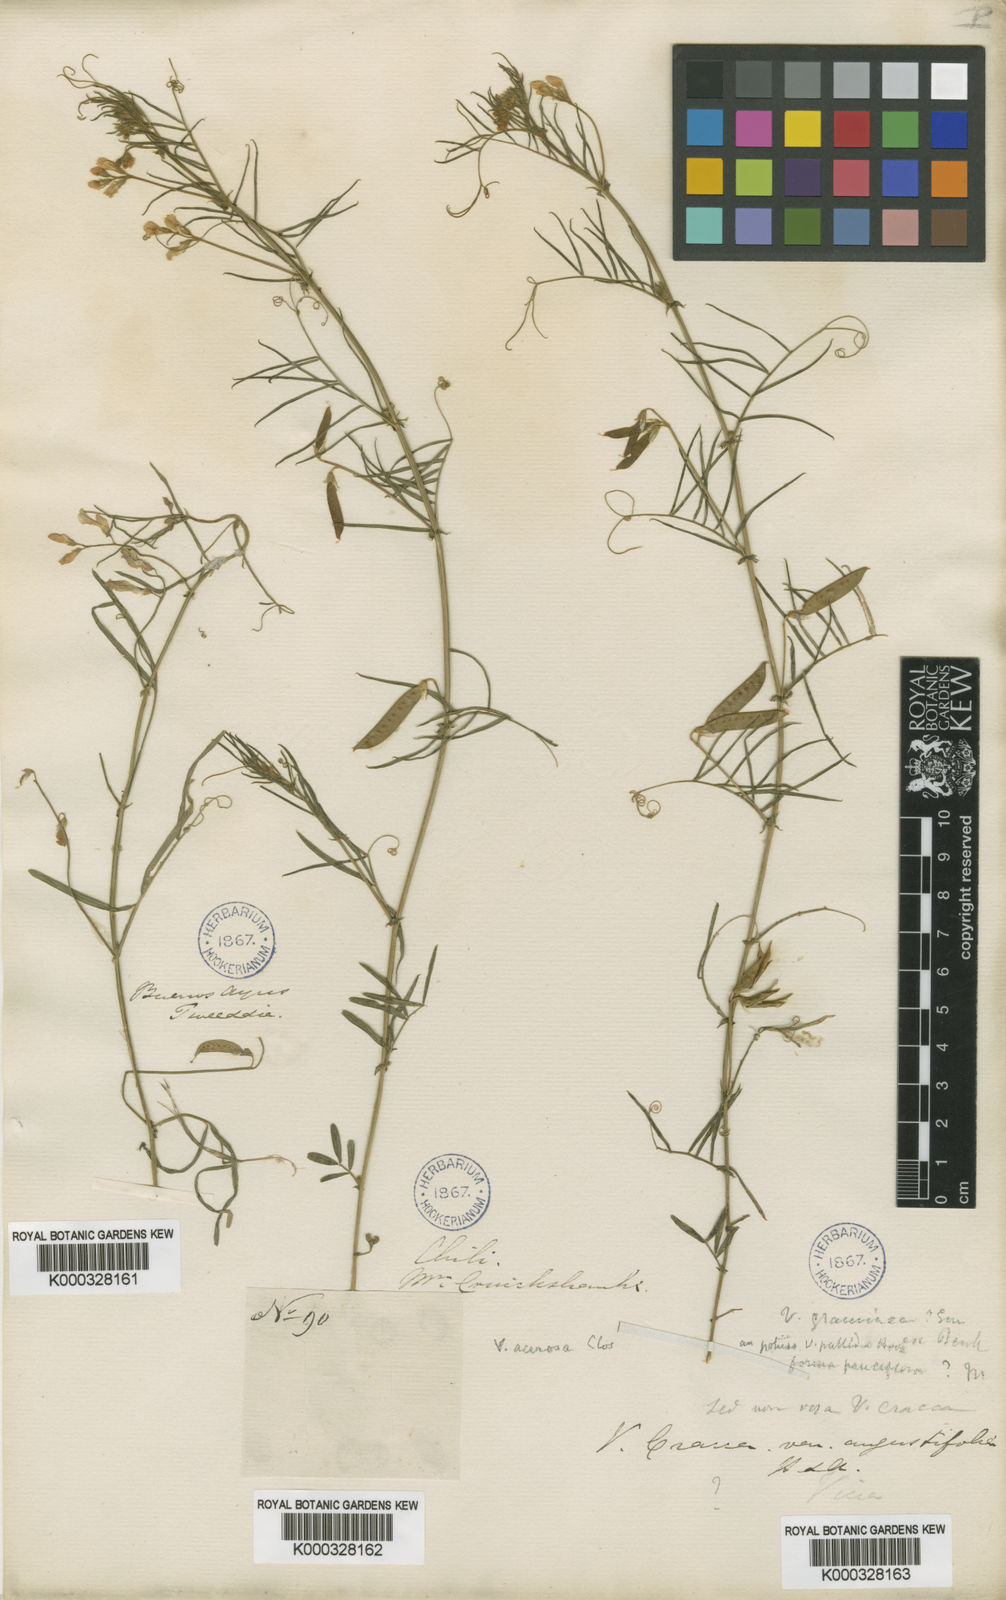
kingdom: Plantae
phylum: Tracheophyta
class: Magnoliopsida
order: Fabales
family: Fabaceae
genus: Vicia
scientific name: Vicia setifolia
